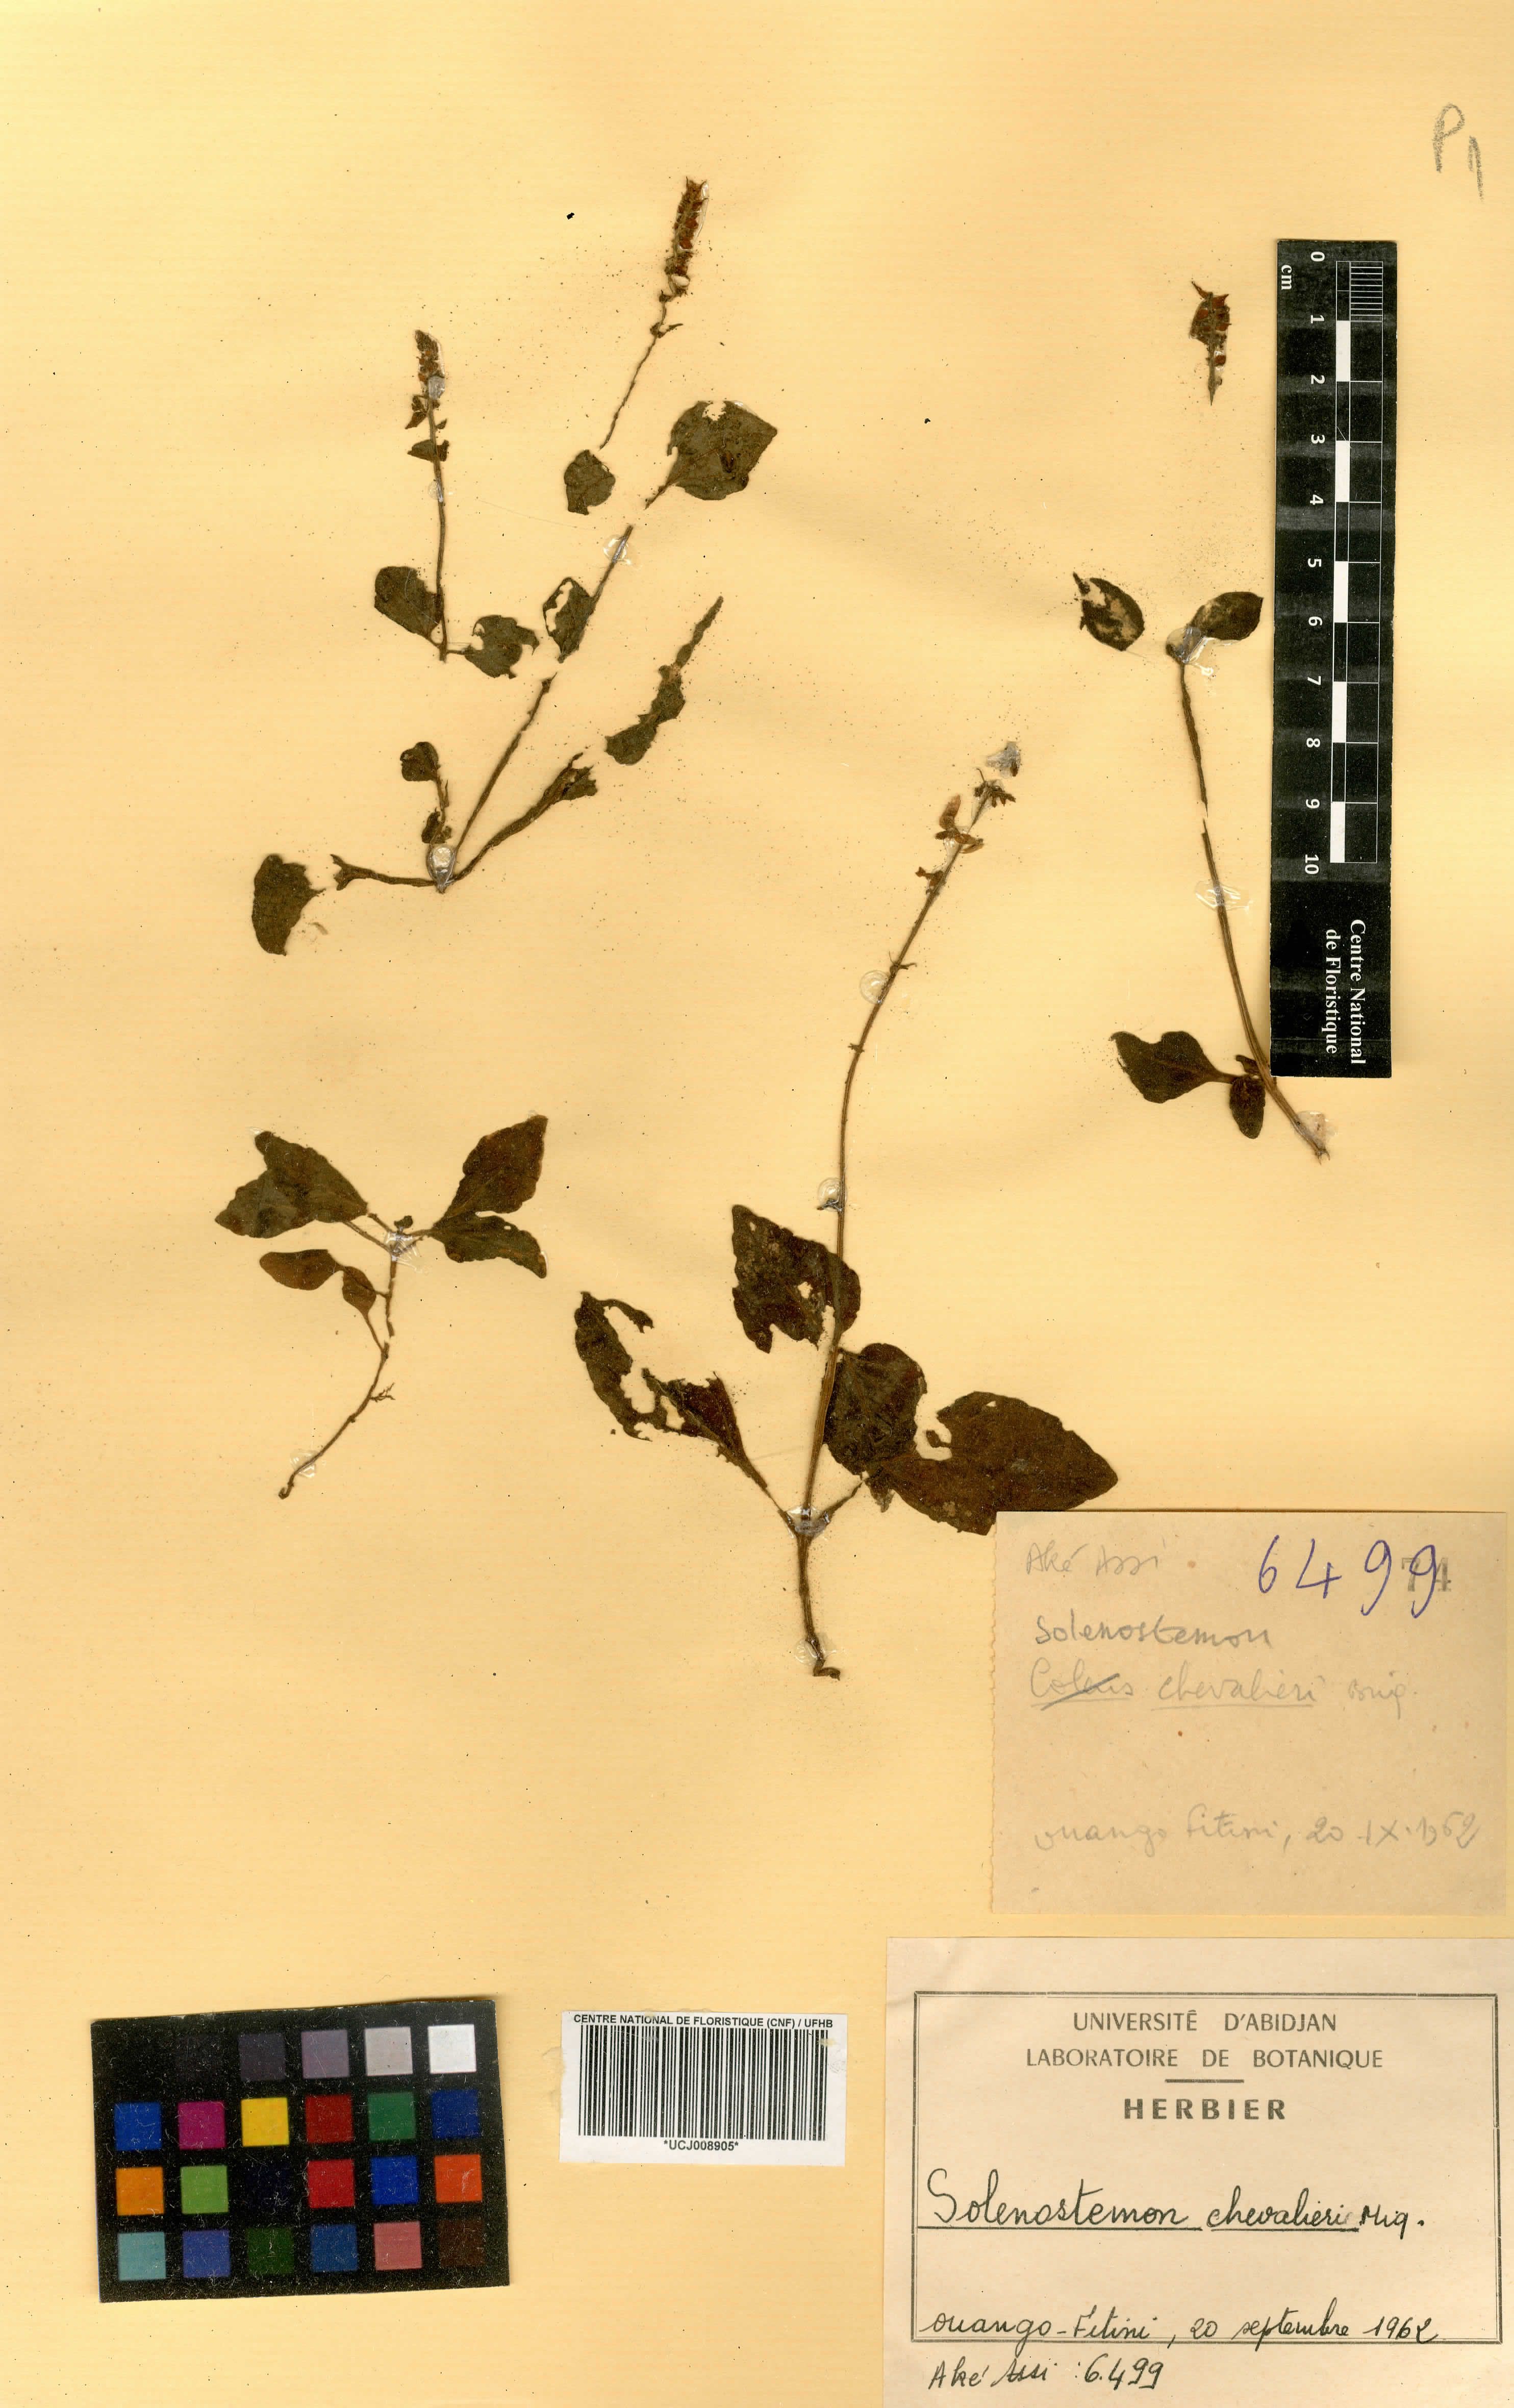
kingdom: Plantae
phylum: Tracheophyta
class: Magnoliopsida
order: Lamiales
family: Lamiaceae
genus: Coleus
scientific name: Coleus koulikoroensis
